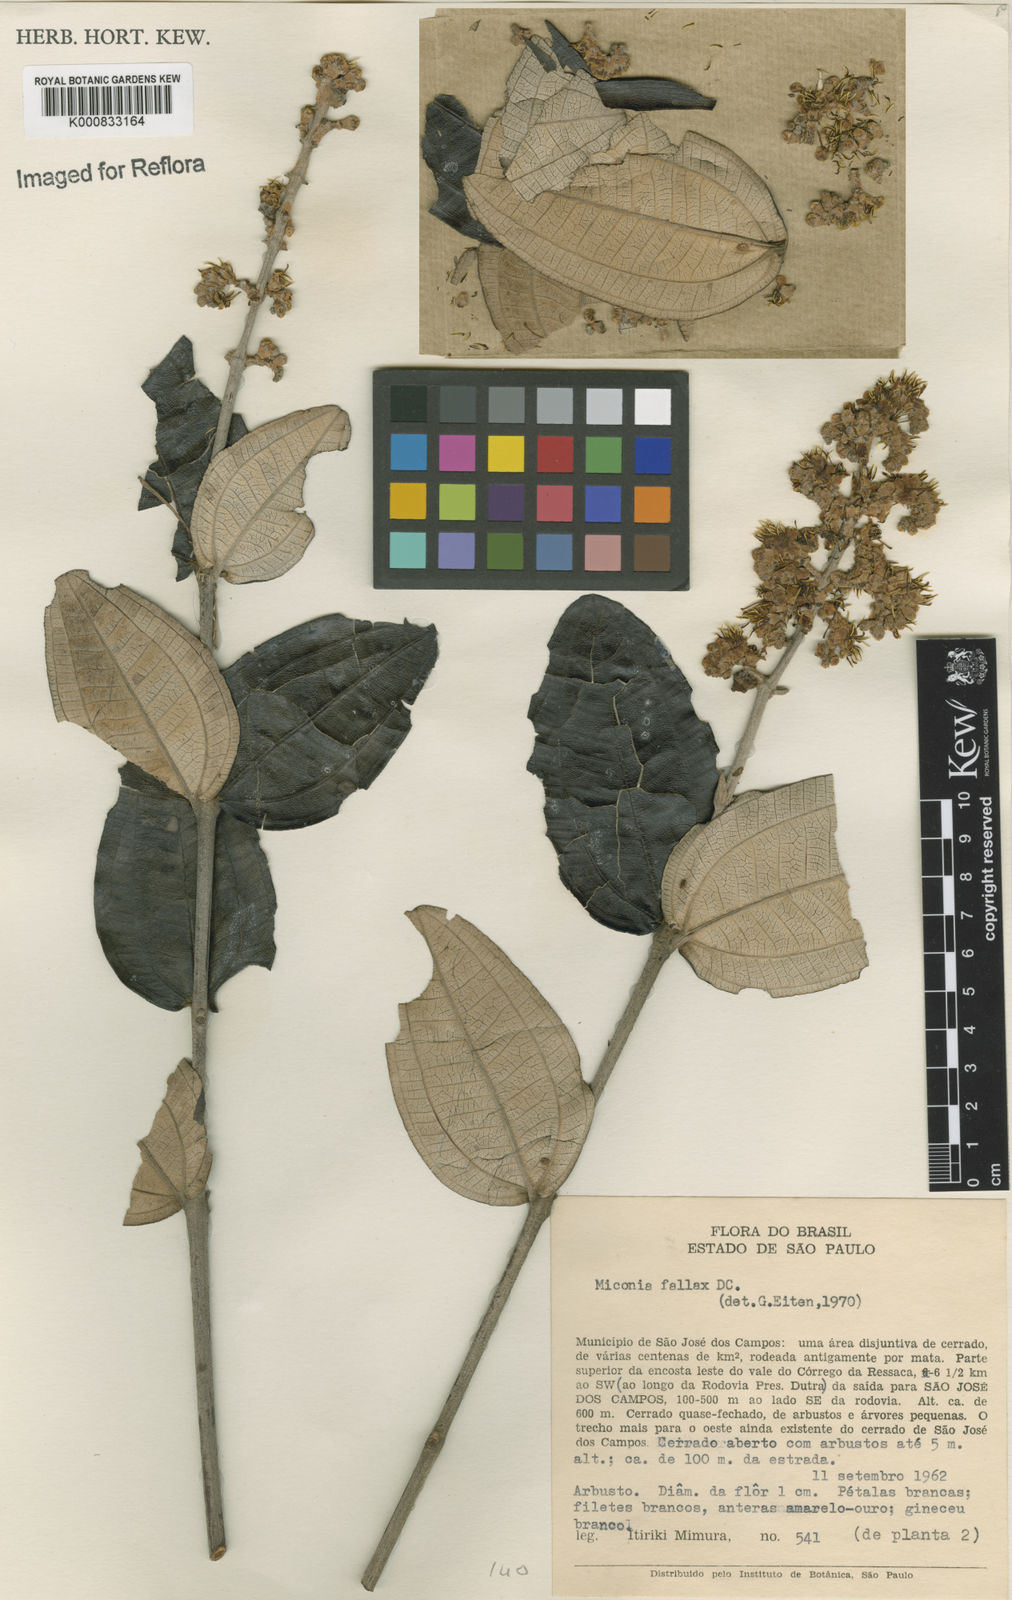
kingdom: Plantae
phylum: Tracheophyta
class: Magnoliopsida
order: Myrtales
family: Melastomataceae
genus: Miconia
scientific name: Miconia fallax
